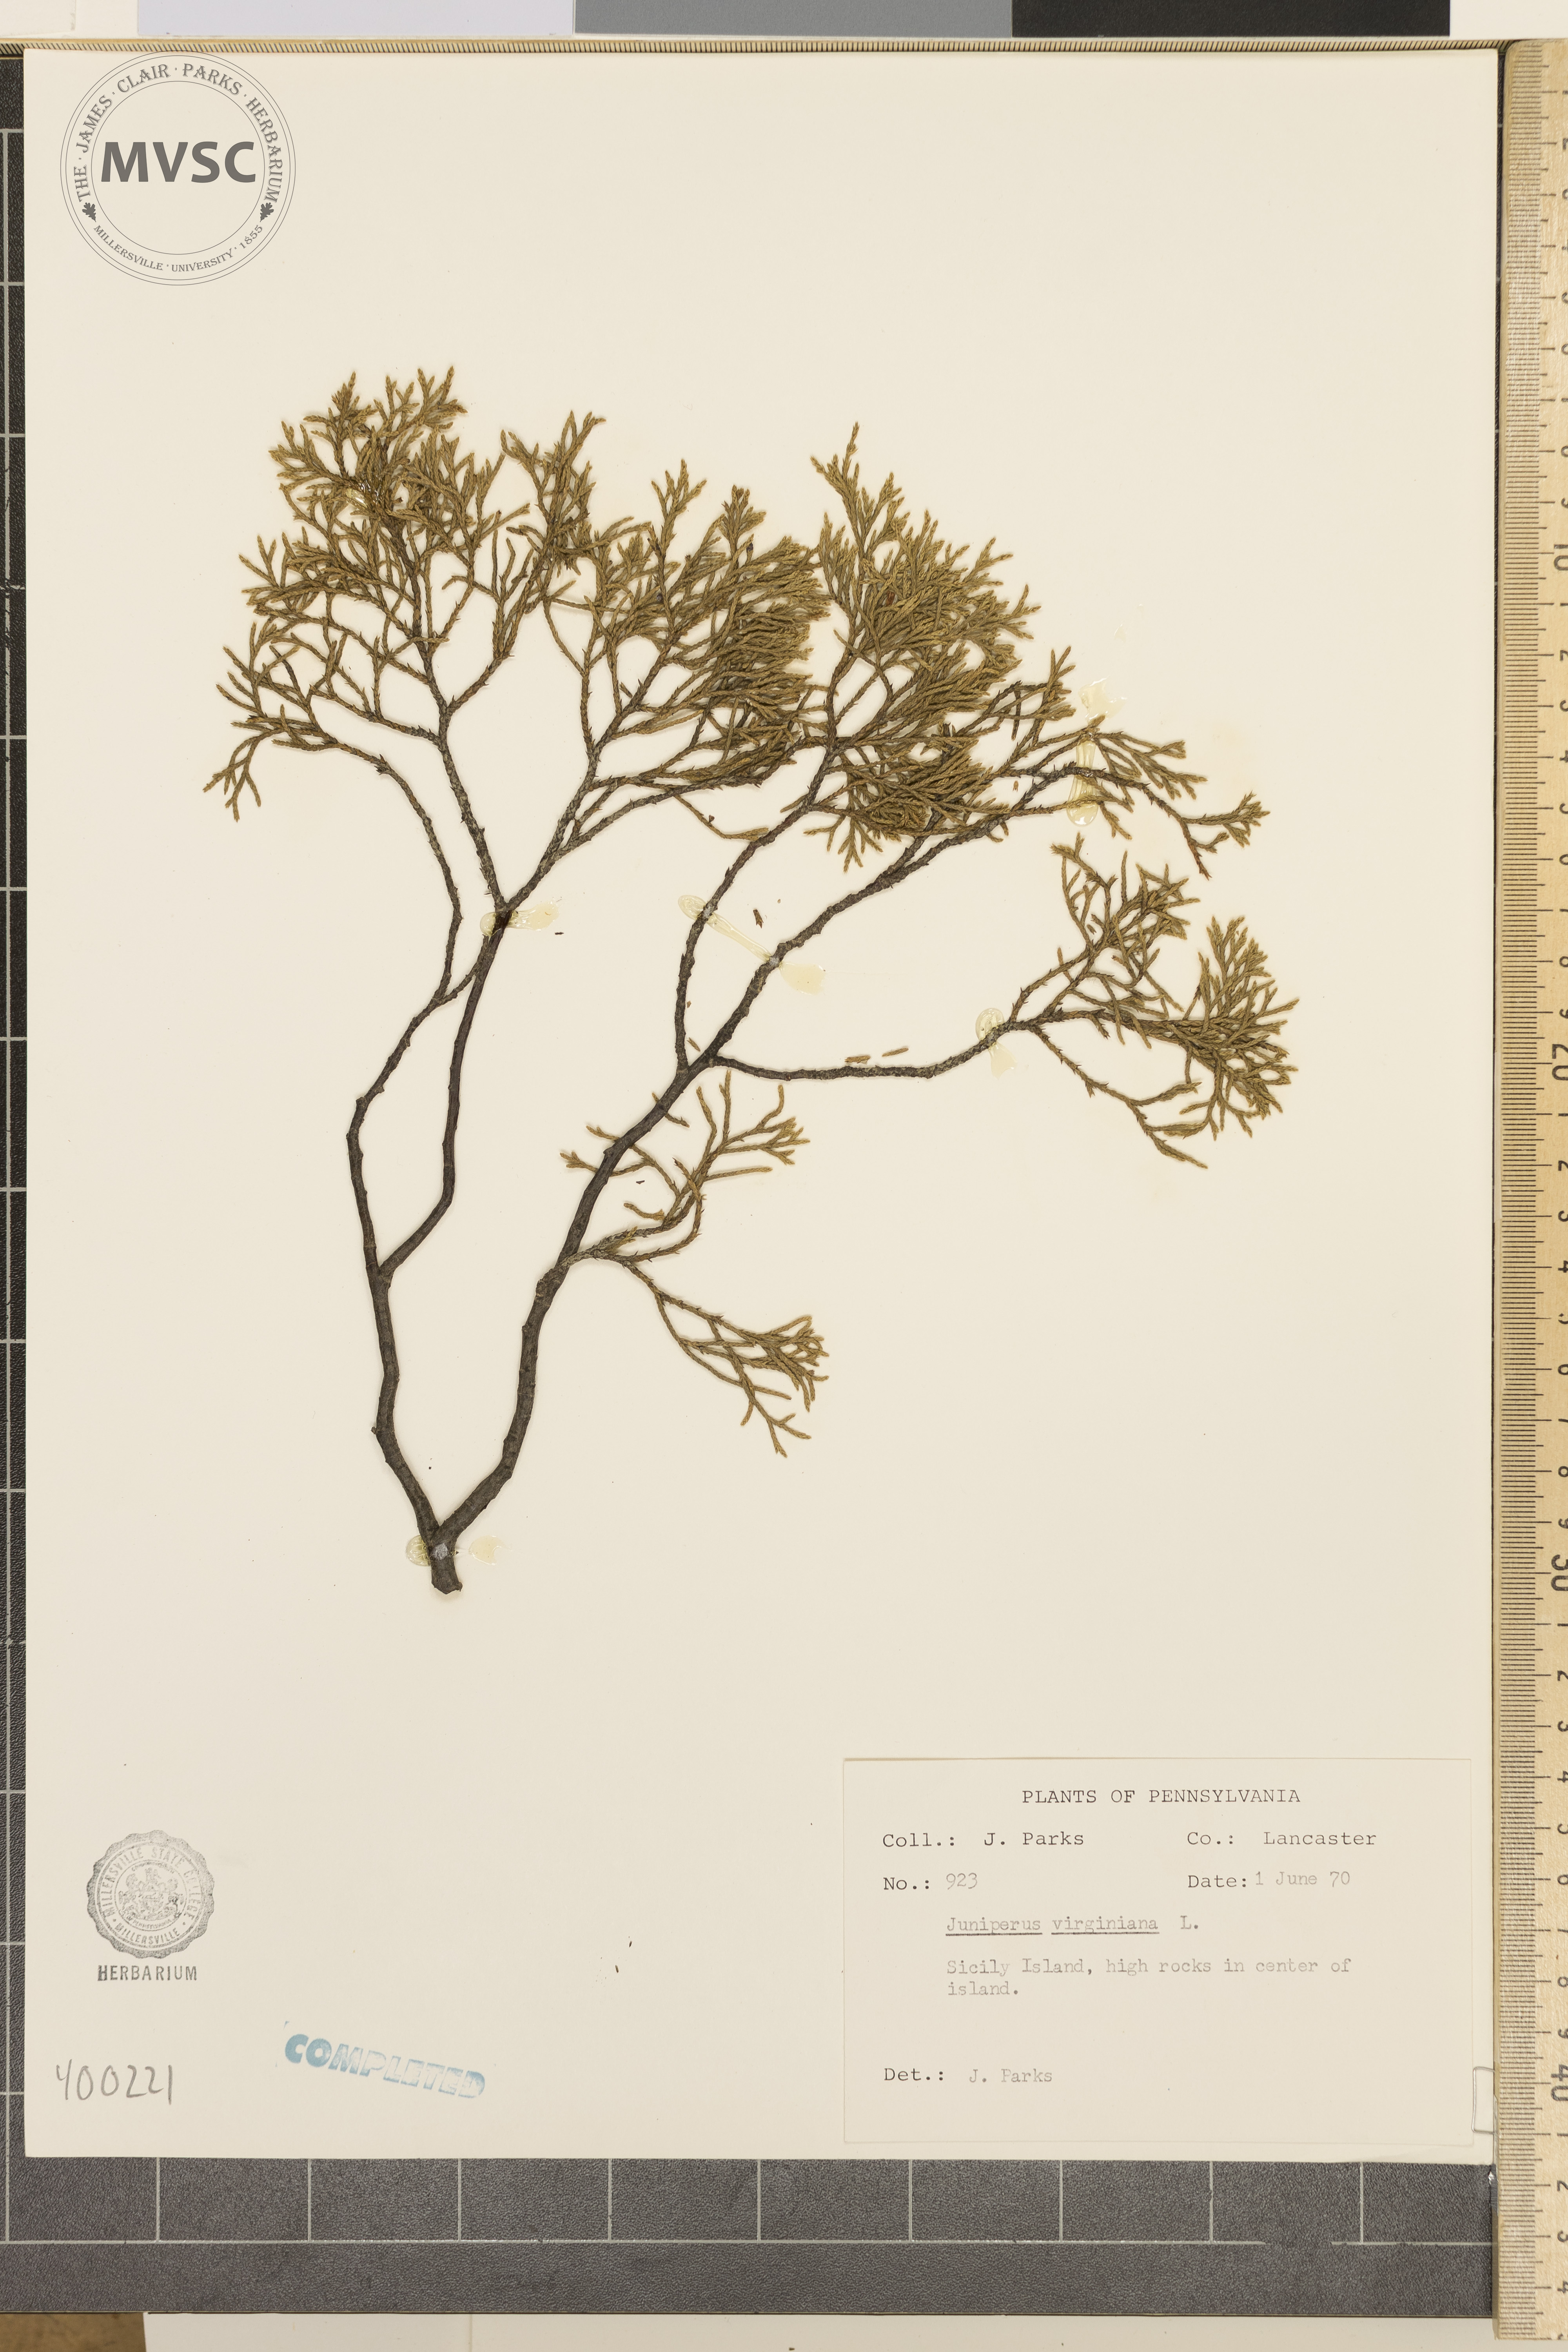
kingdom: Plantae
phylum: Tracheophyta
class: Pinopsida
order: Pinales
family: Cupressaceae
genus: Juniperus
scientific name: Juniperus virginiana
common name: Eastern red-cedar
